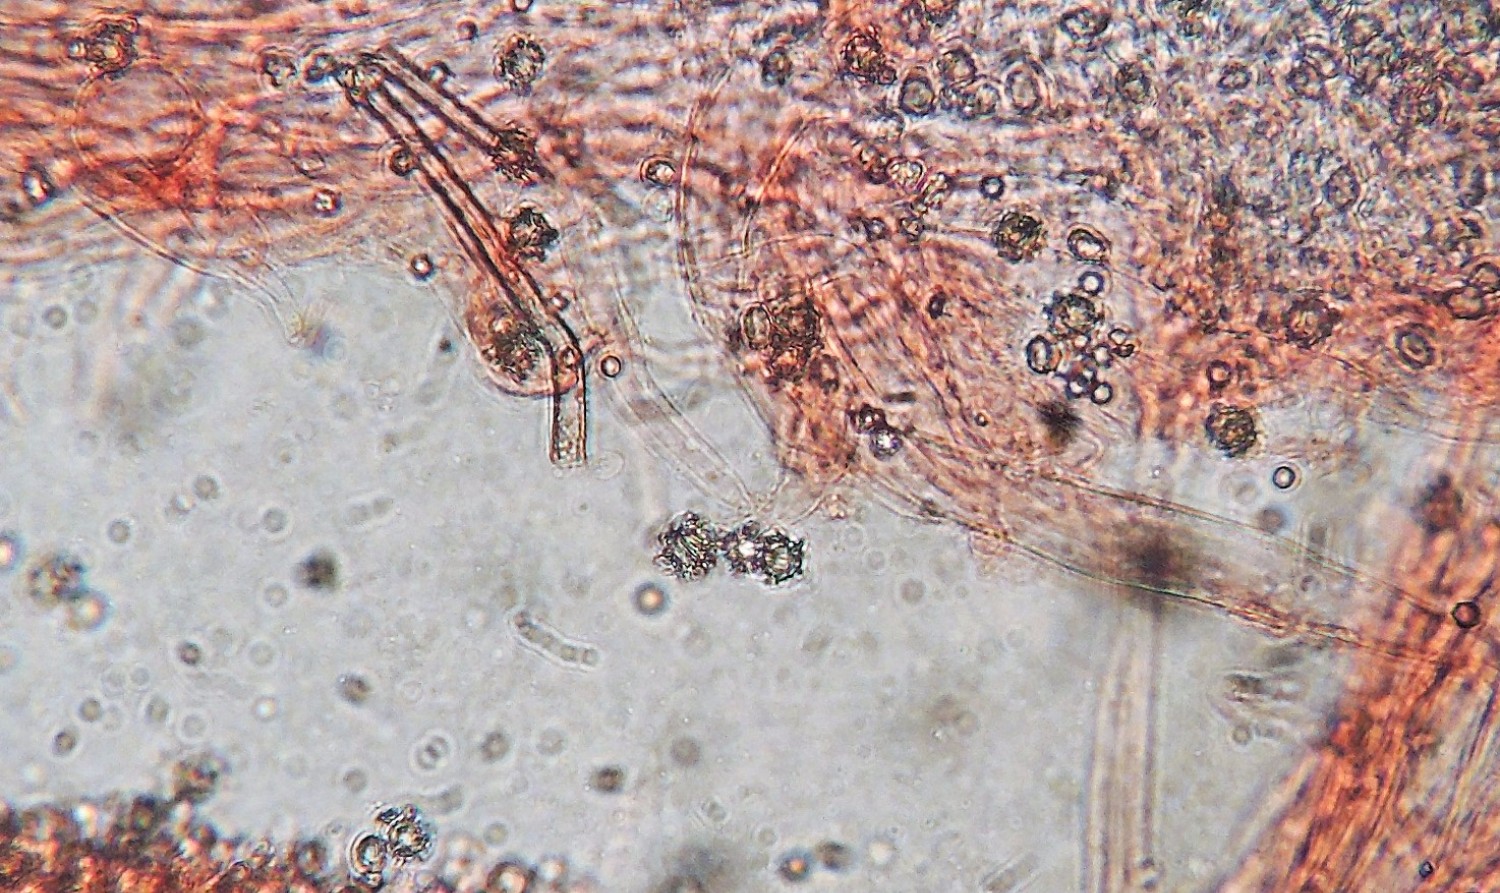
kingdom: Fungi
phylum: Basidiomycota
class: Agaricomycetes
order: Agaricales
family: Clavariaceae
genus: Clavaria
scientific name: Clavaria falcata
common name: hvid køllesvamp
